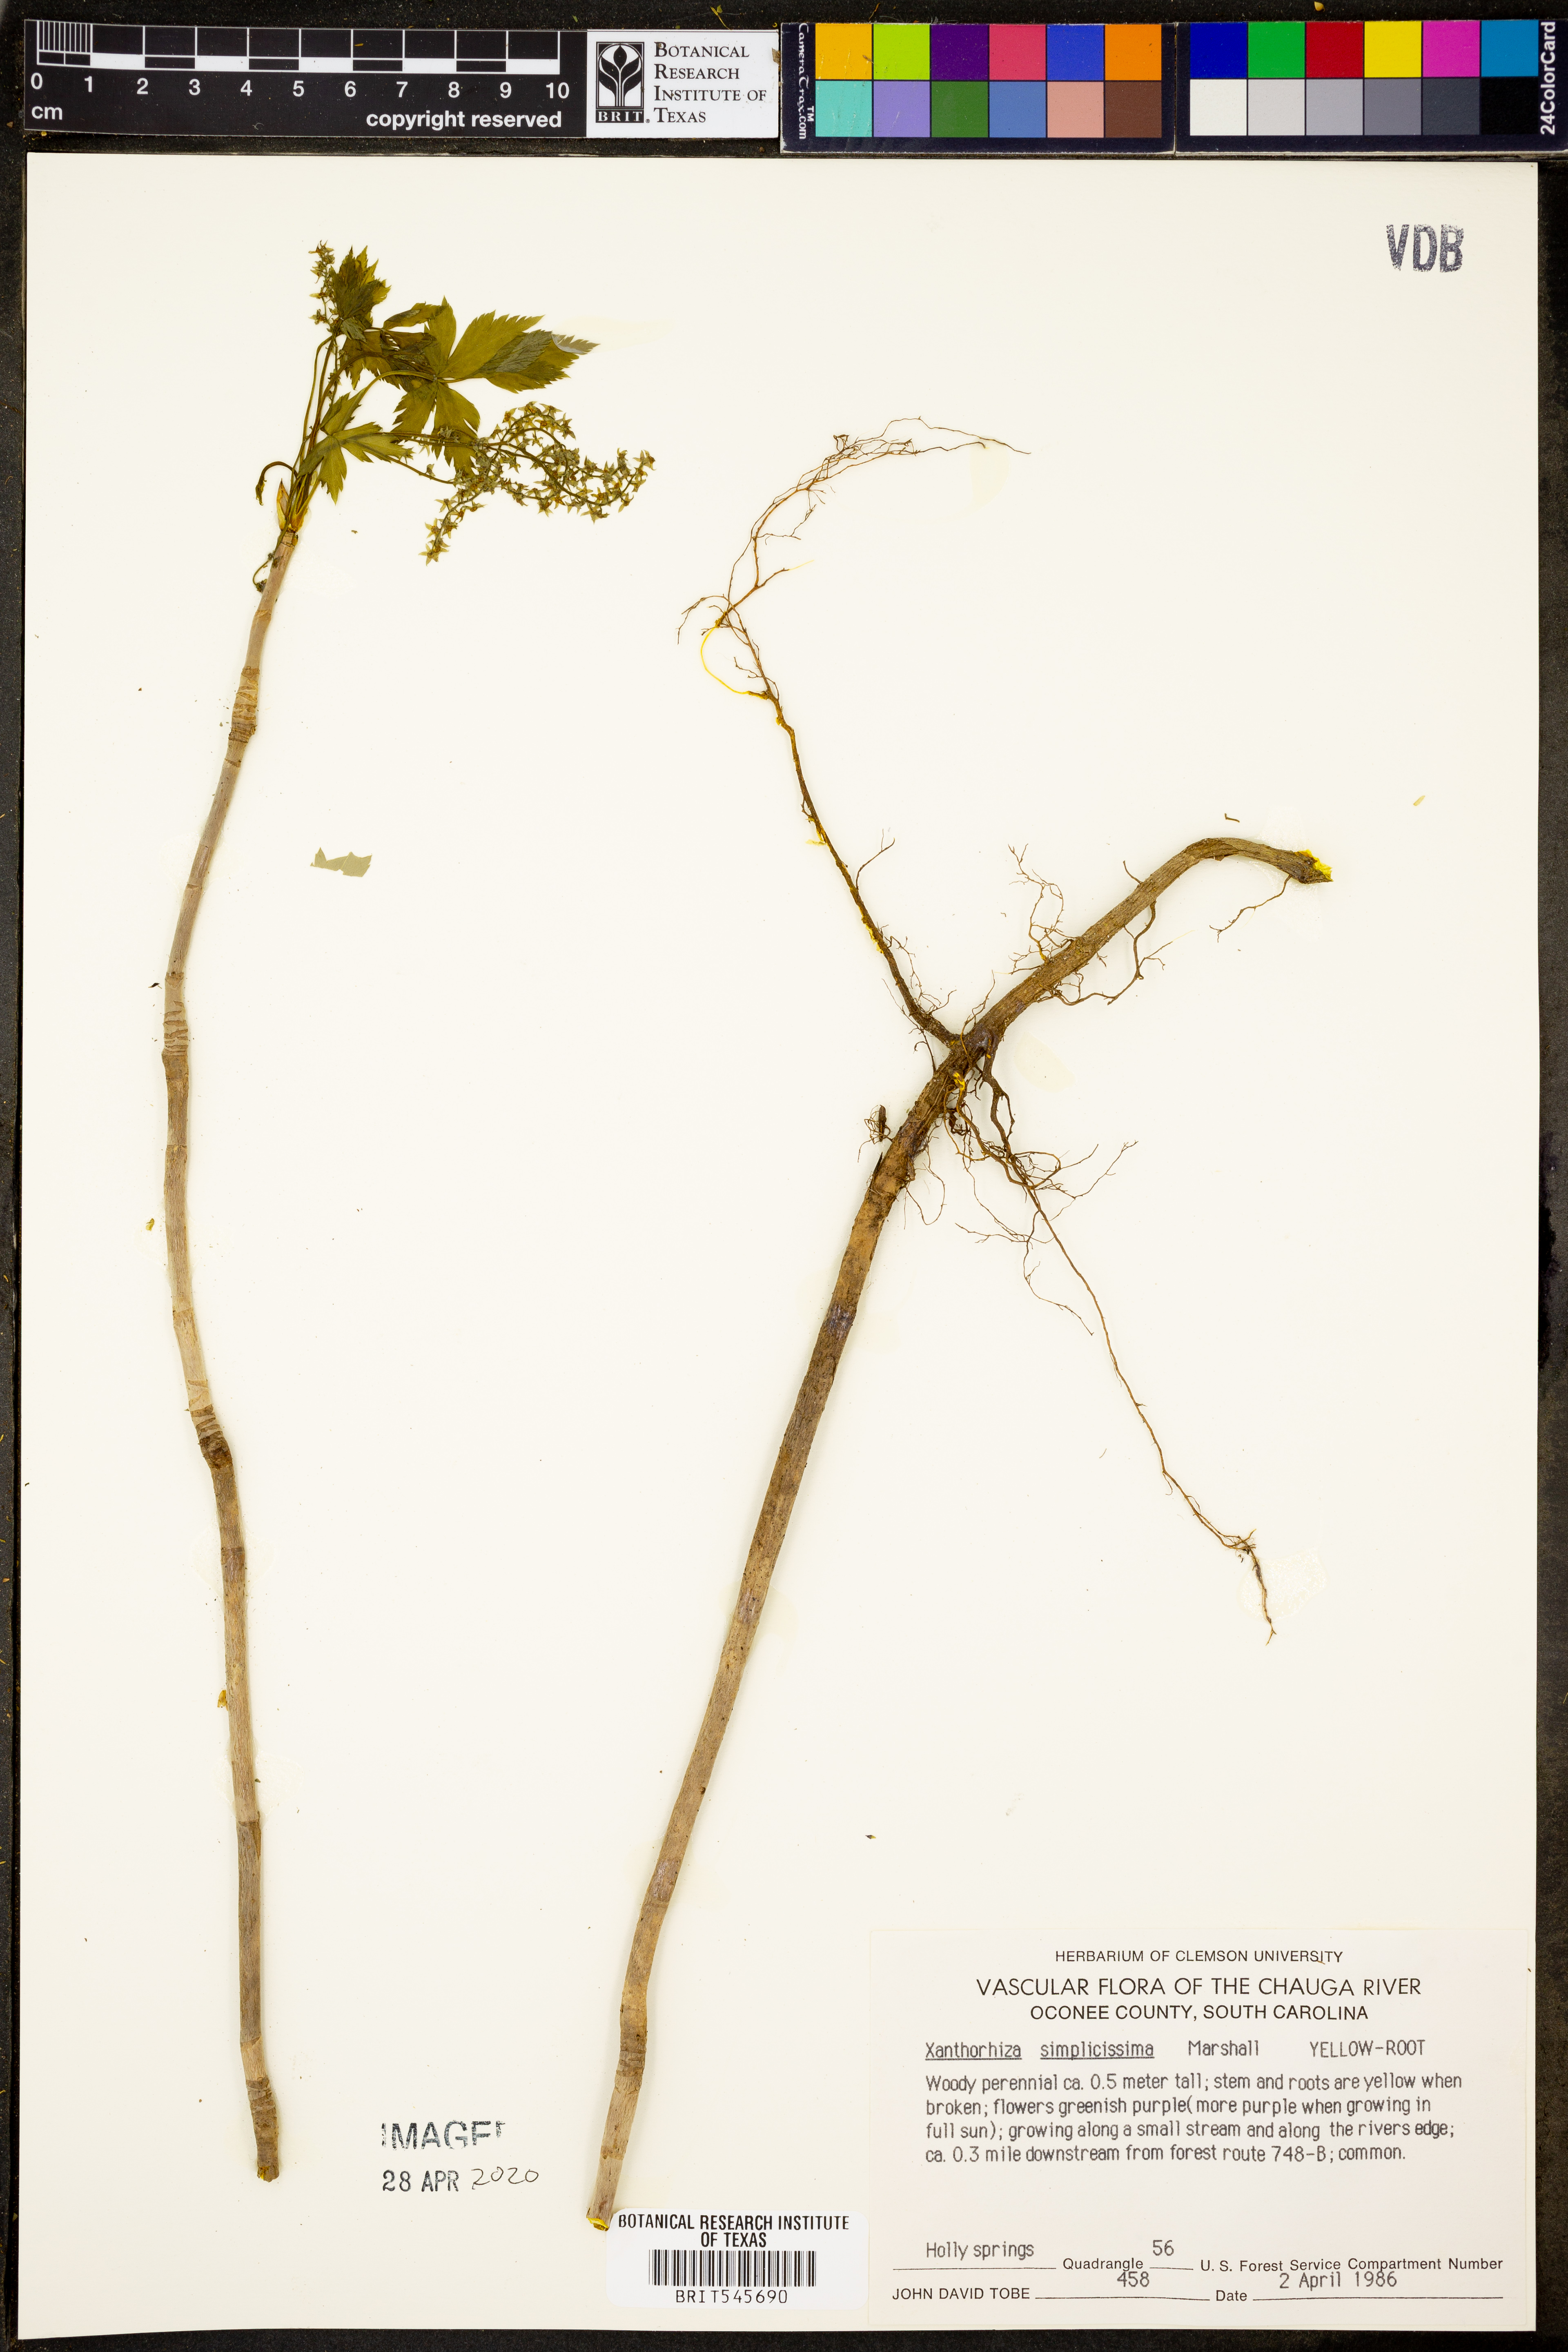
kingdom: Plantae
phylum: Tracheophyta
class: Magnoliopsida
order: Ranunculales
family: Ranunculaceae
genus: Xanthorhiza
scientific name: Xanthorhiza simplicissima
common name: Yellowroot
